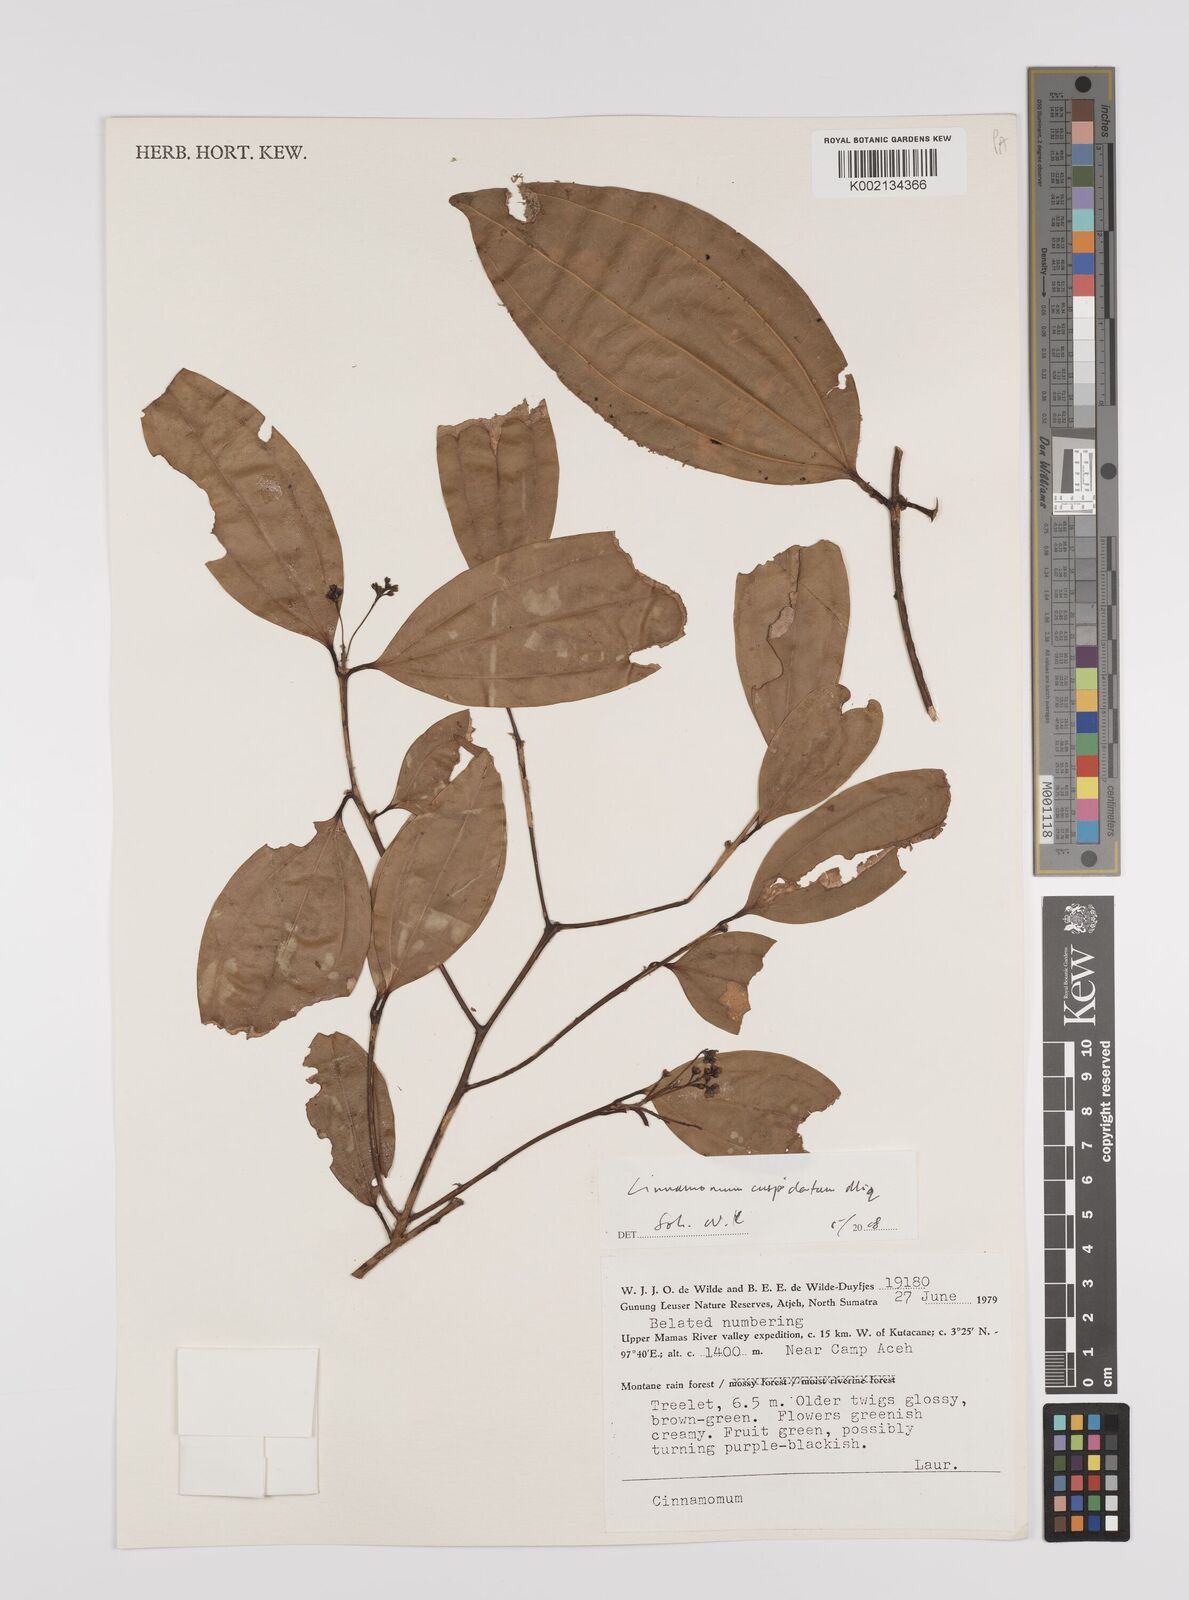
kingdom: Plantae
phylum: Tracheophyta
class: Magnoliopsida
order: Laurales
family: Lauraceae
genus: Cinnamomum
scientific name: Cinnamomum cuspidatum
